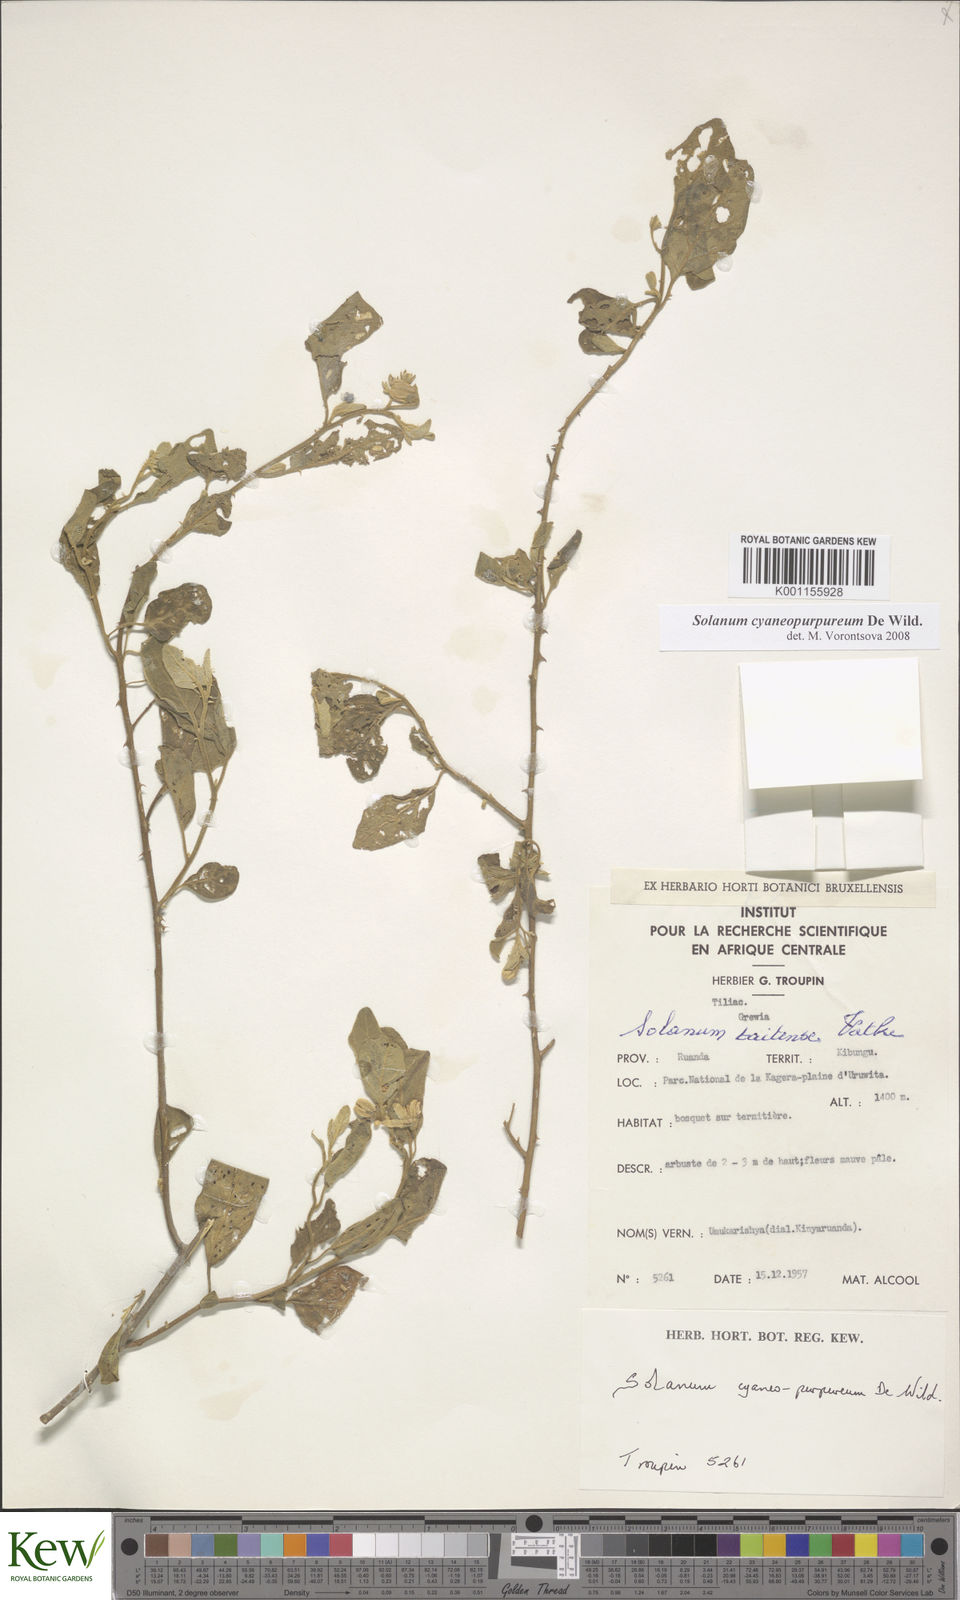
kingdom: Plantae
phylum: Tracheophyta
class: Magnoliopsida
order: Solanales
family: Solanaceae
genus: Solanum
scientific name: Solanum cyaneopurpureum
